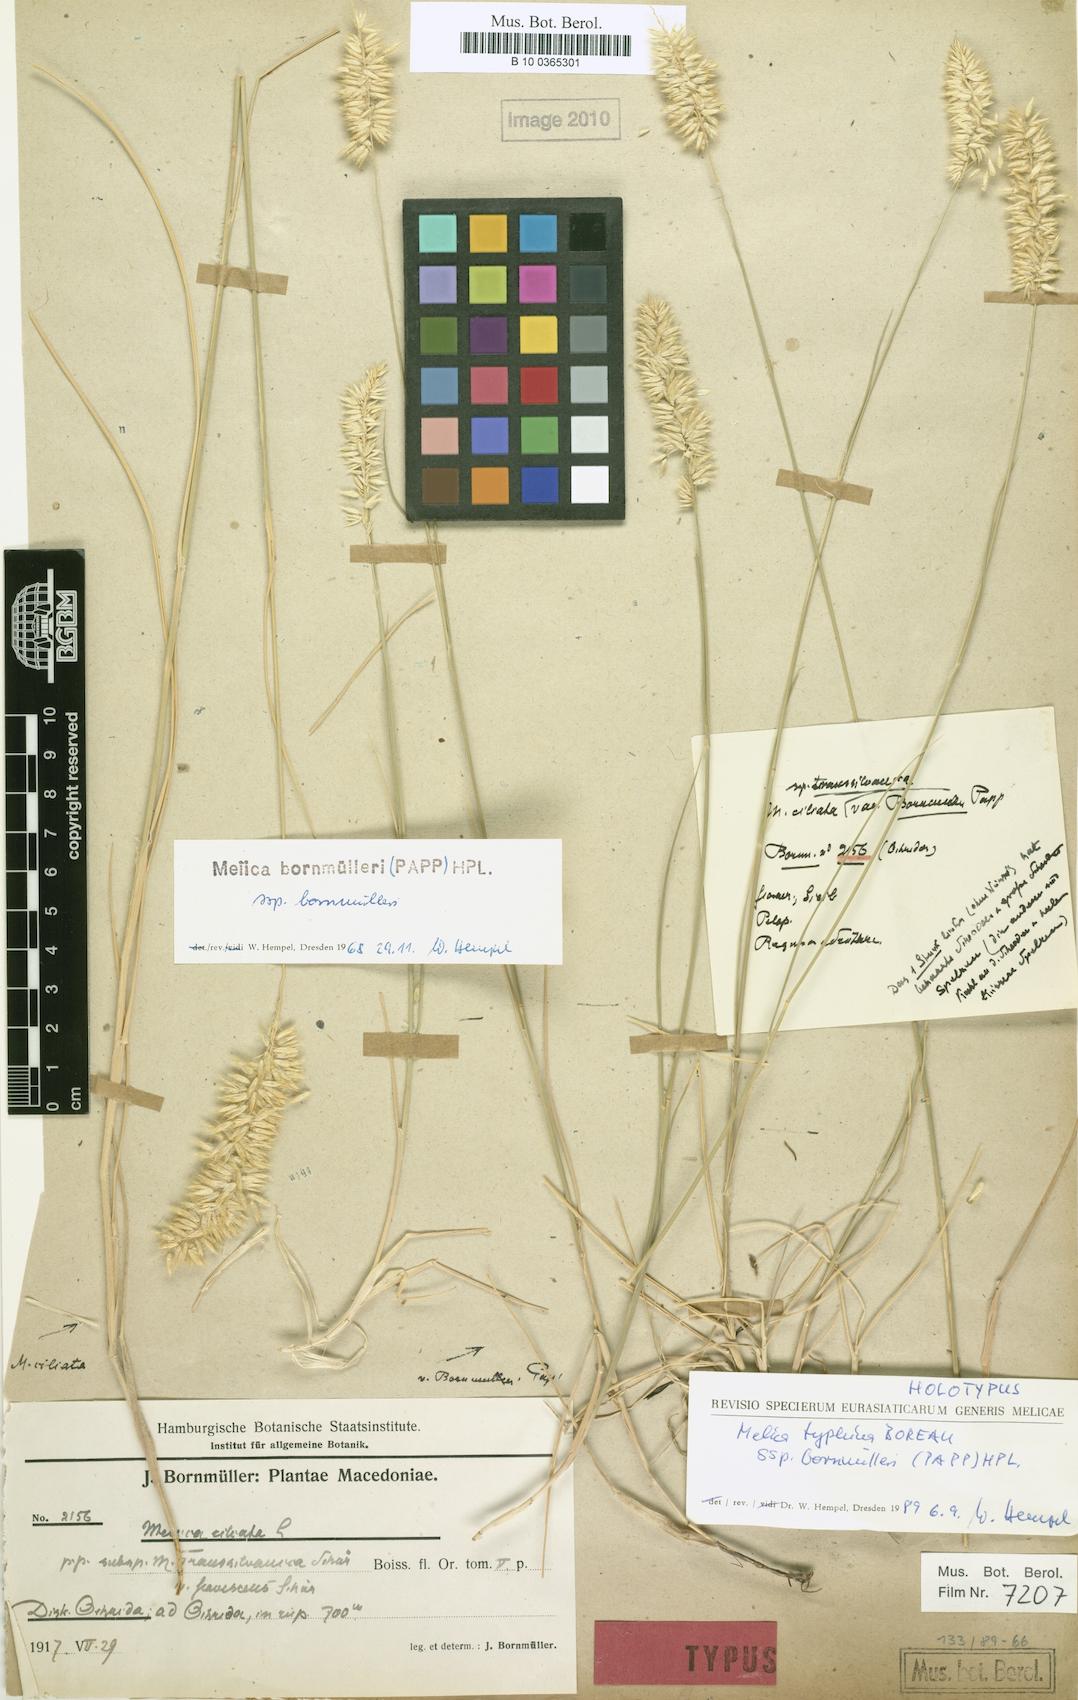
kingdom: Plantae
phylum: Tracheophyta
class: Liliopsida
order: Poales
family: Poaceae
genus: Melica
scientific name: Melica ciliata
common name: Hairy melicgrass
